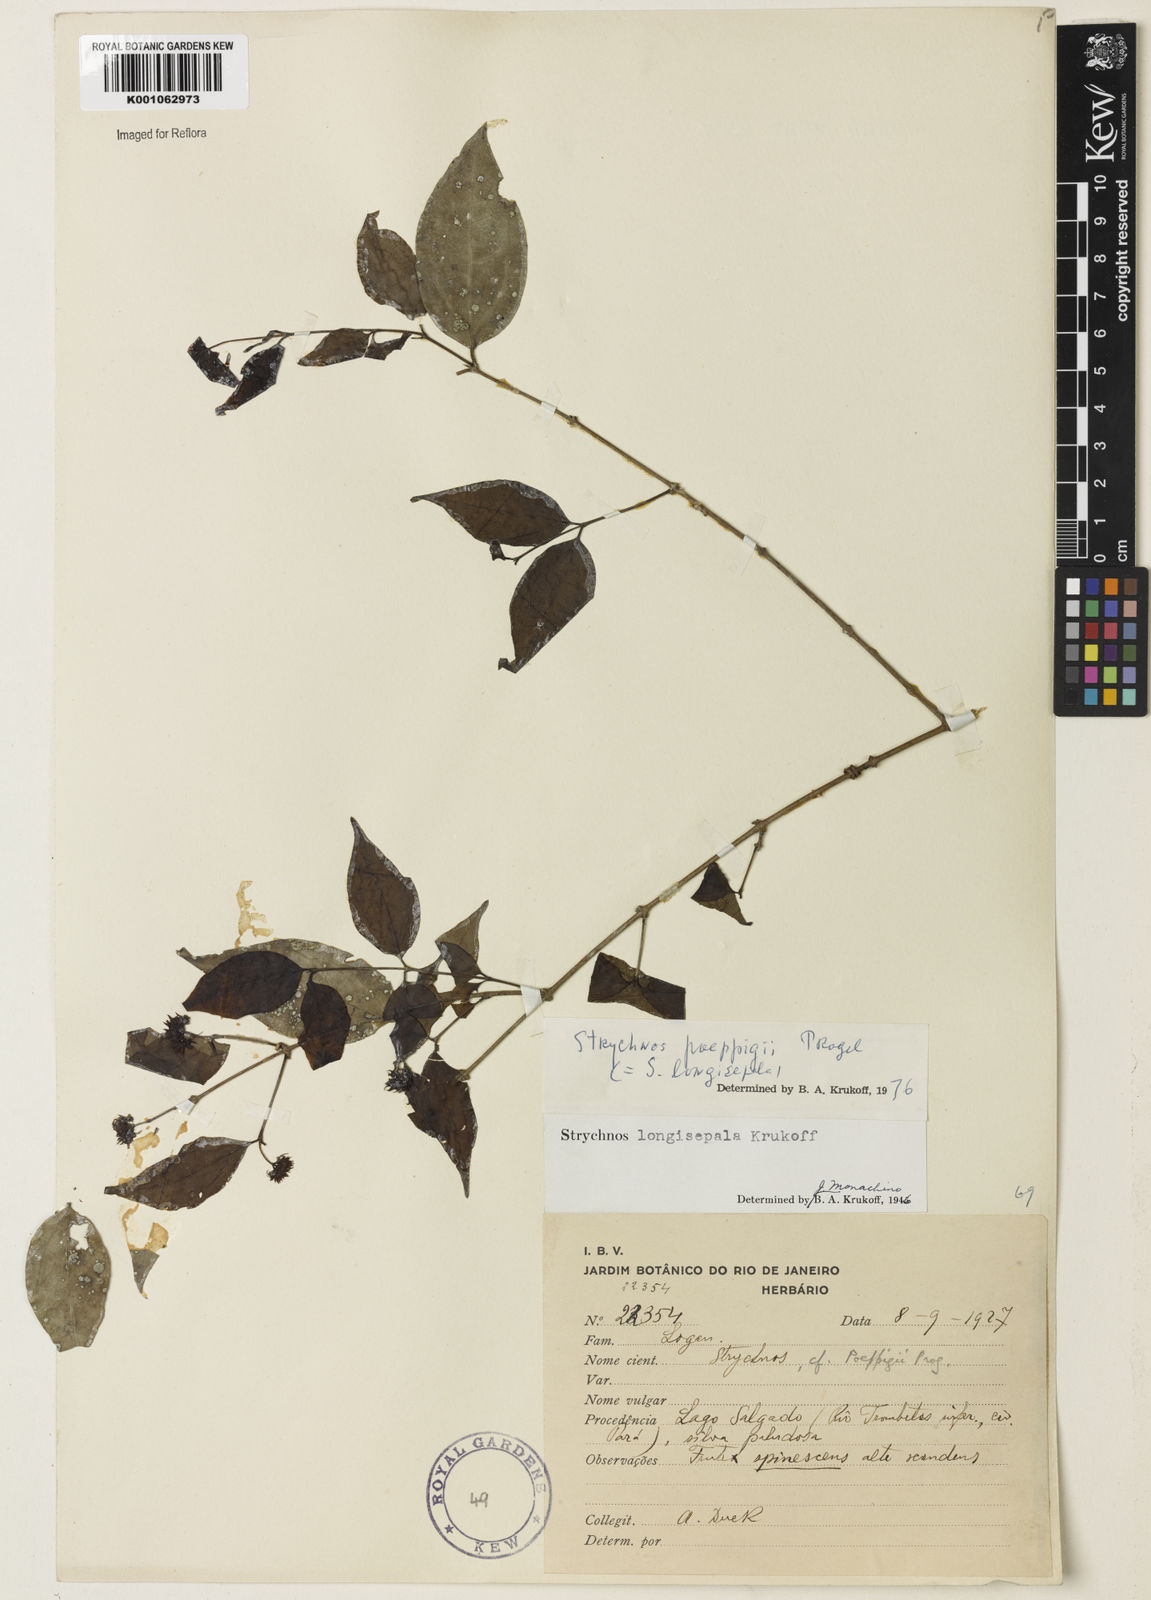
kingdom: Plantae
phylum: Tracheophyta
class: Magnoliopsida
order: Gentianales
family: Loganiaceae
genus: Strychnos
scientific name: Strychnos poeppigii
